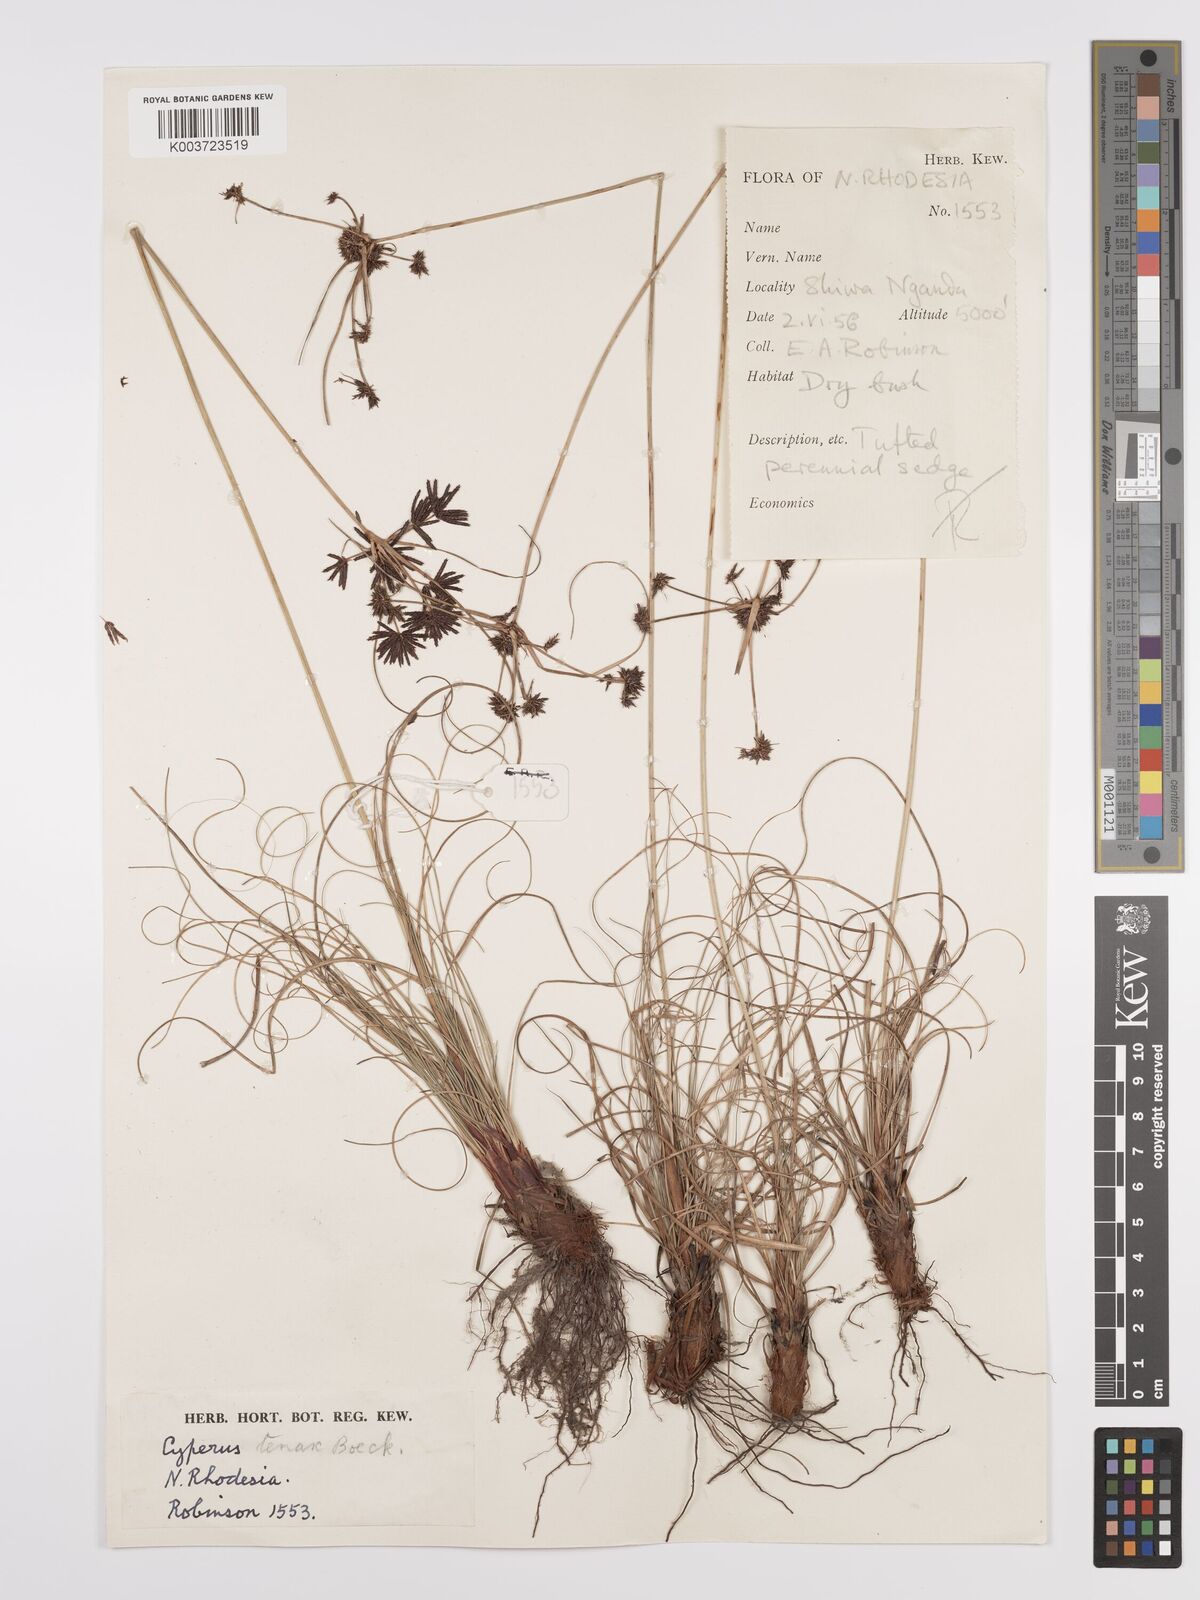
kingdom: Plantae
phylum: Tracheophyta
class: Liliopsida
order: Poales
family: Cyperaceae
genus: Cyperus
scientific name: Cyperus tenax
